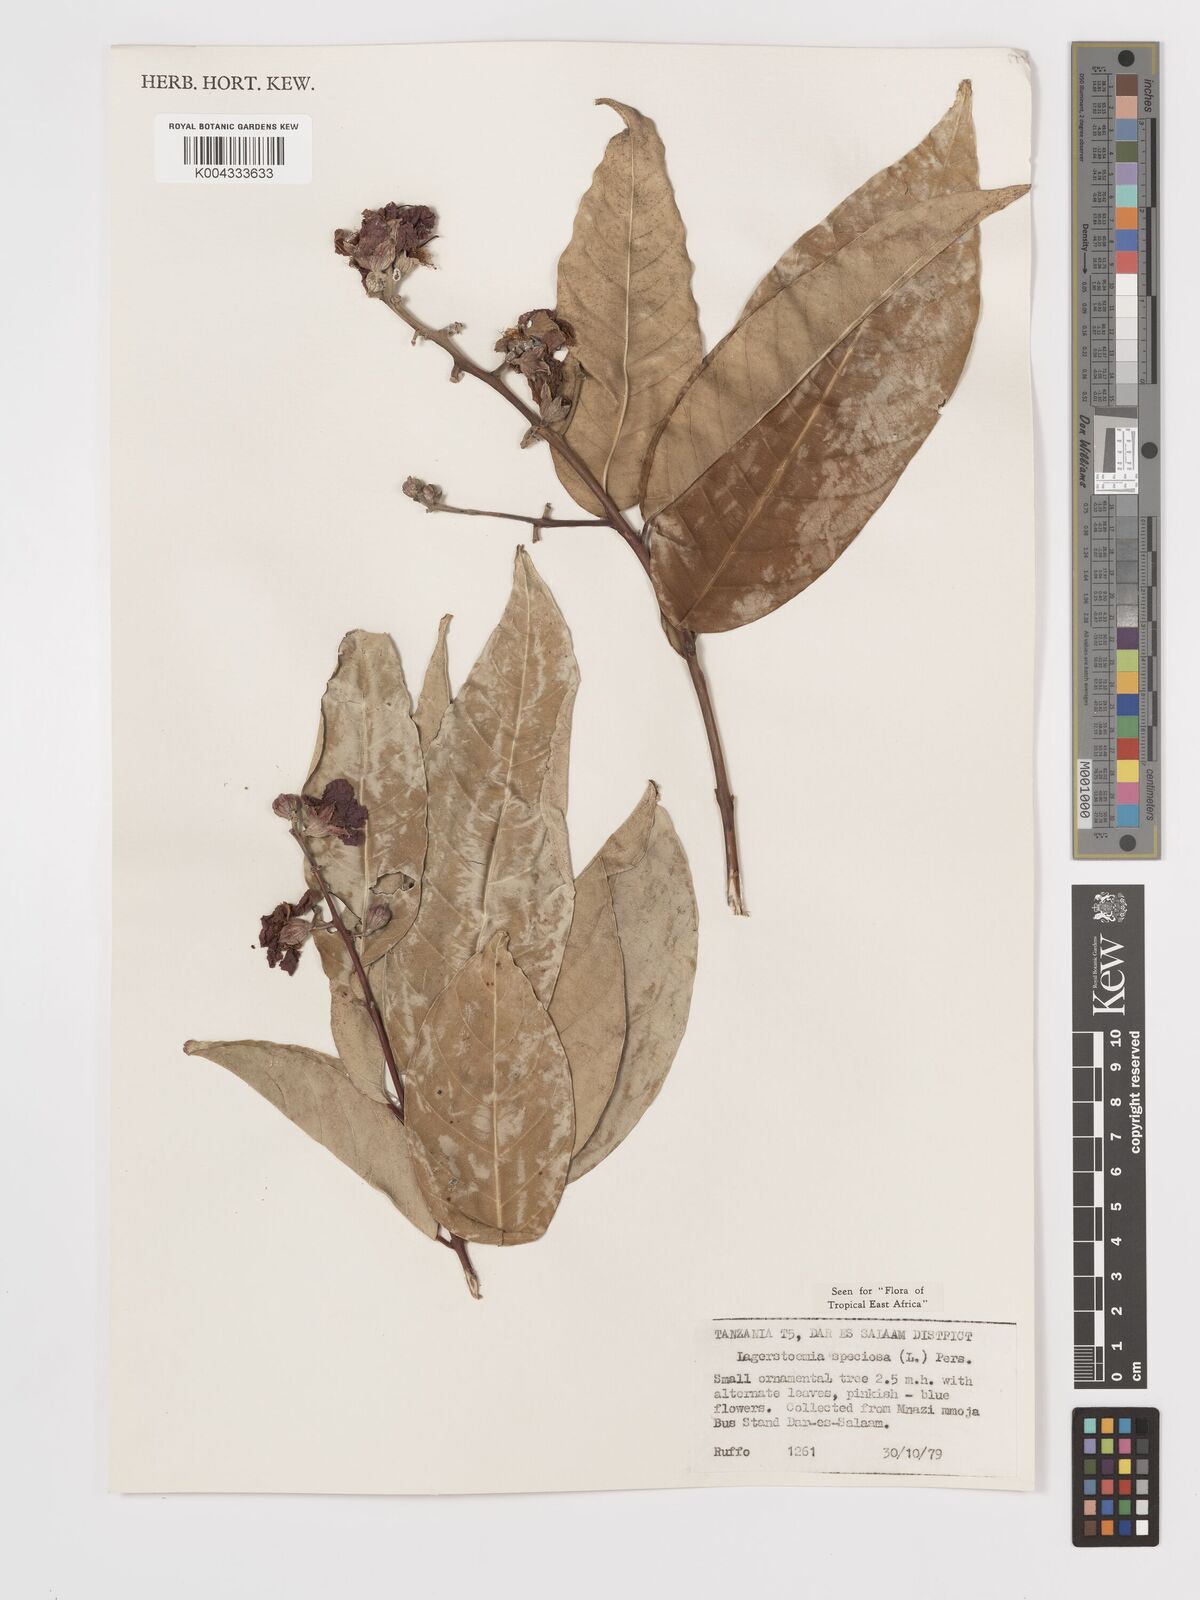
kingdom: Plantae
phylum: Tracheophyta
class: Magnoliopsida
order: Myrtales
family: Lythraceae
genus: Lagerstroemia
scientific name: Lagerstroemia speciosa
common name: Queen's crape-myrtle
